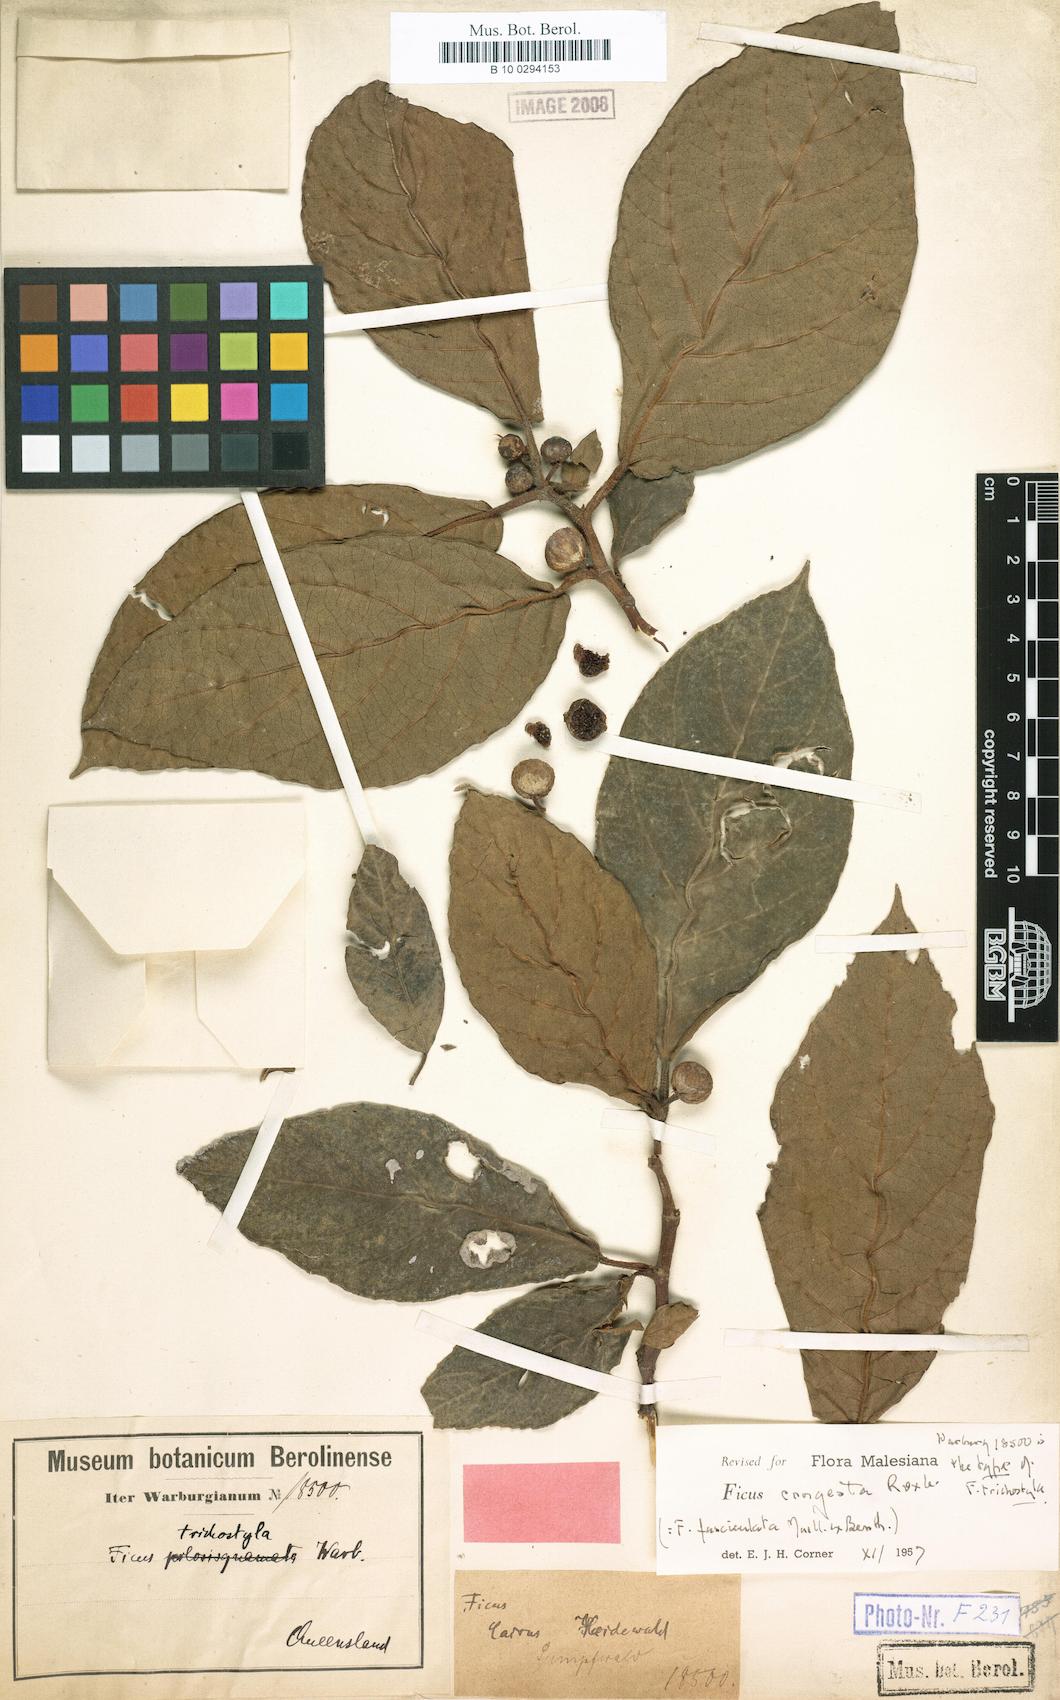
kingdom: Plantae
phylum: Tracheophyta
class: Magnoliopsida
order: Rosales
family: Moraceae
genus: Ficus
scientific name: Ficus congesta
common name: Cluster fig
